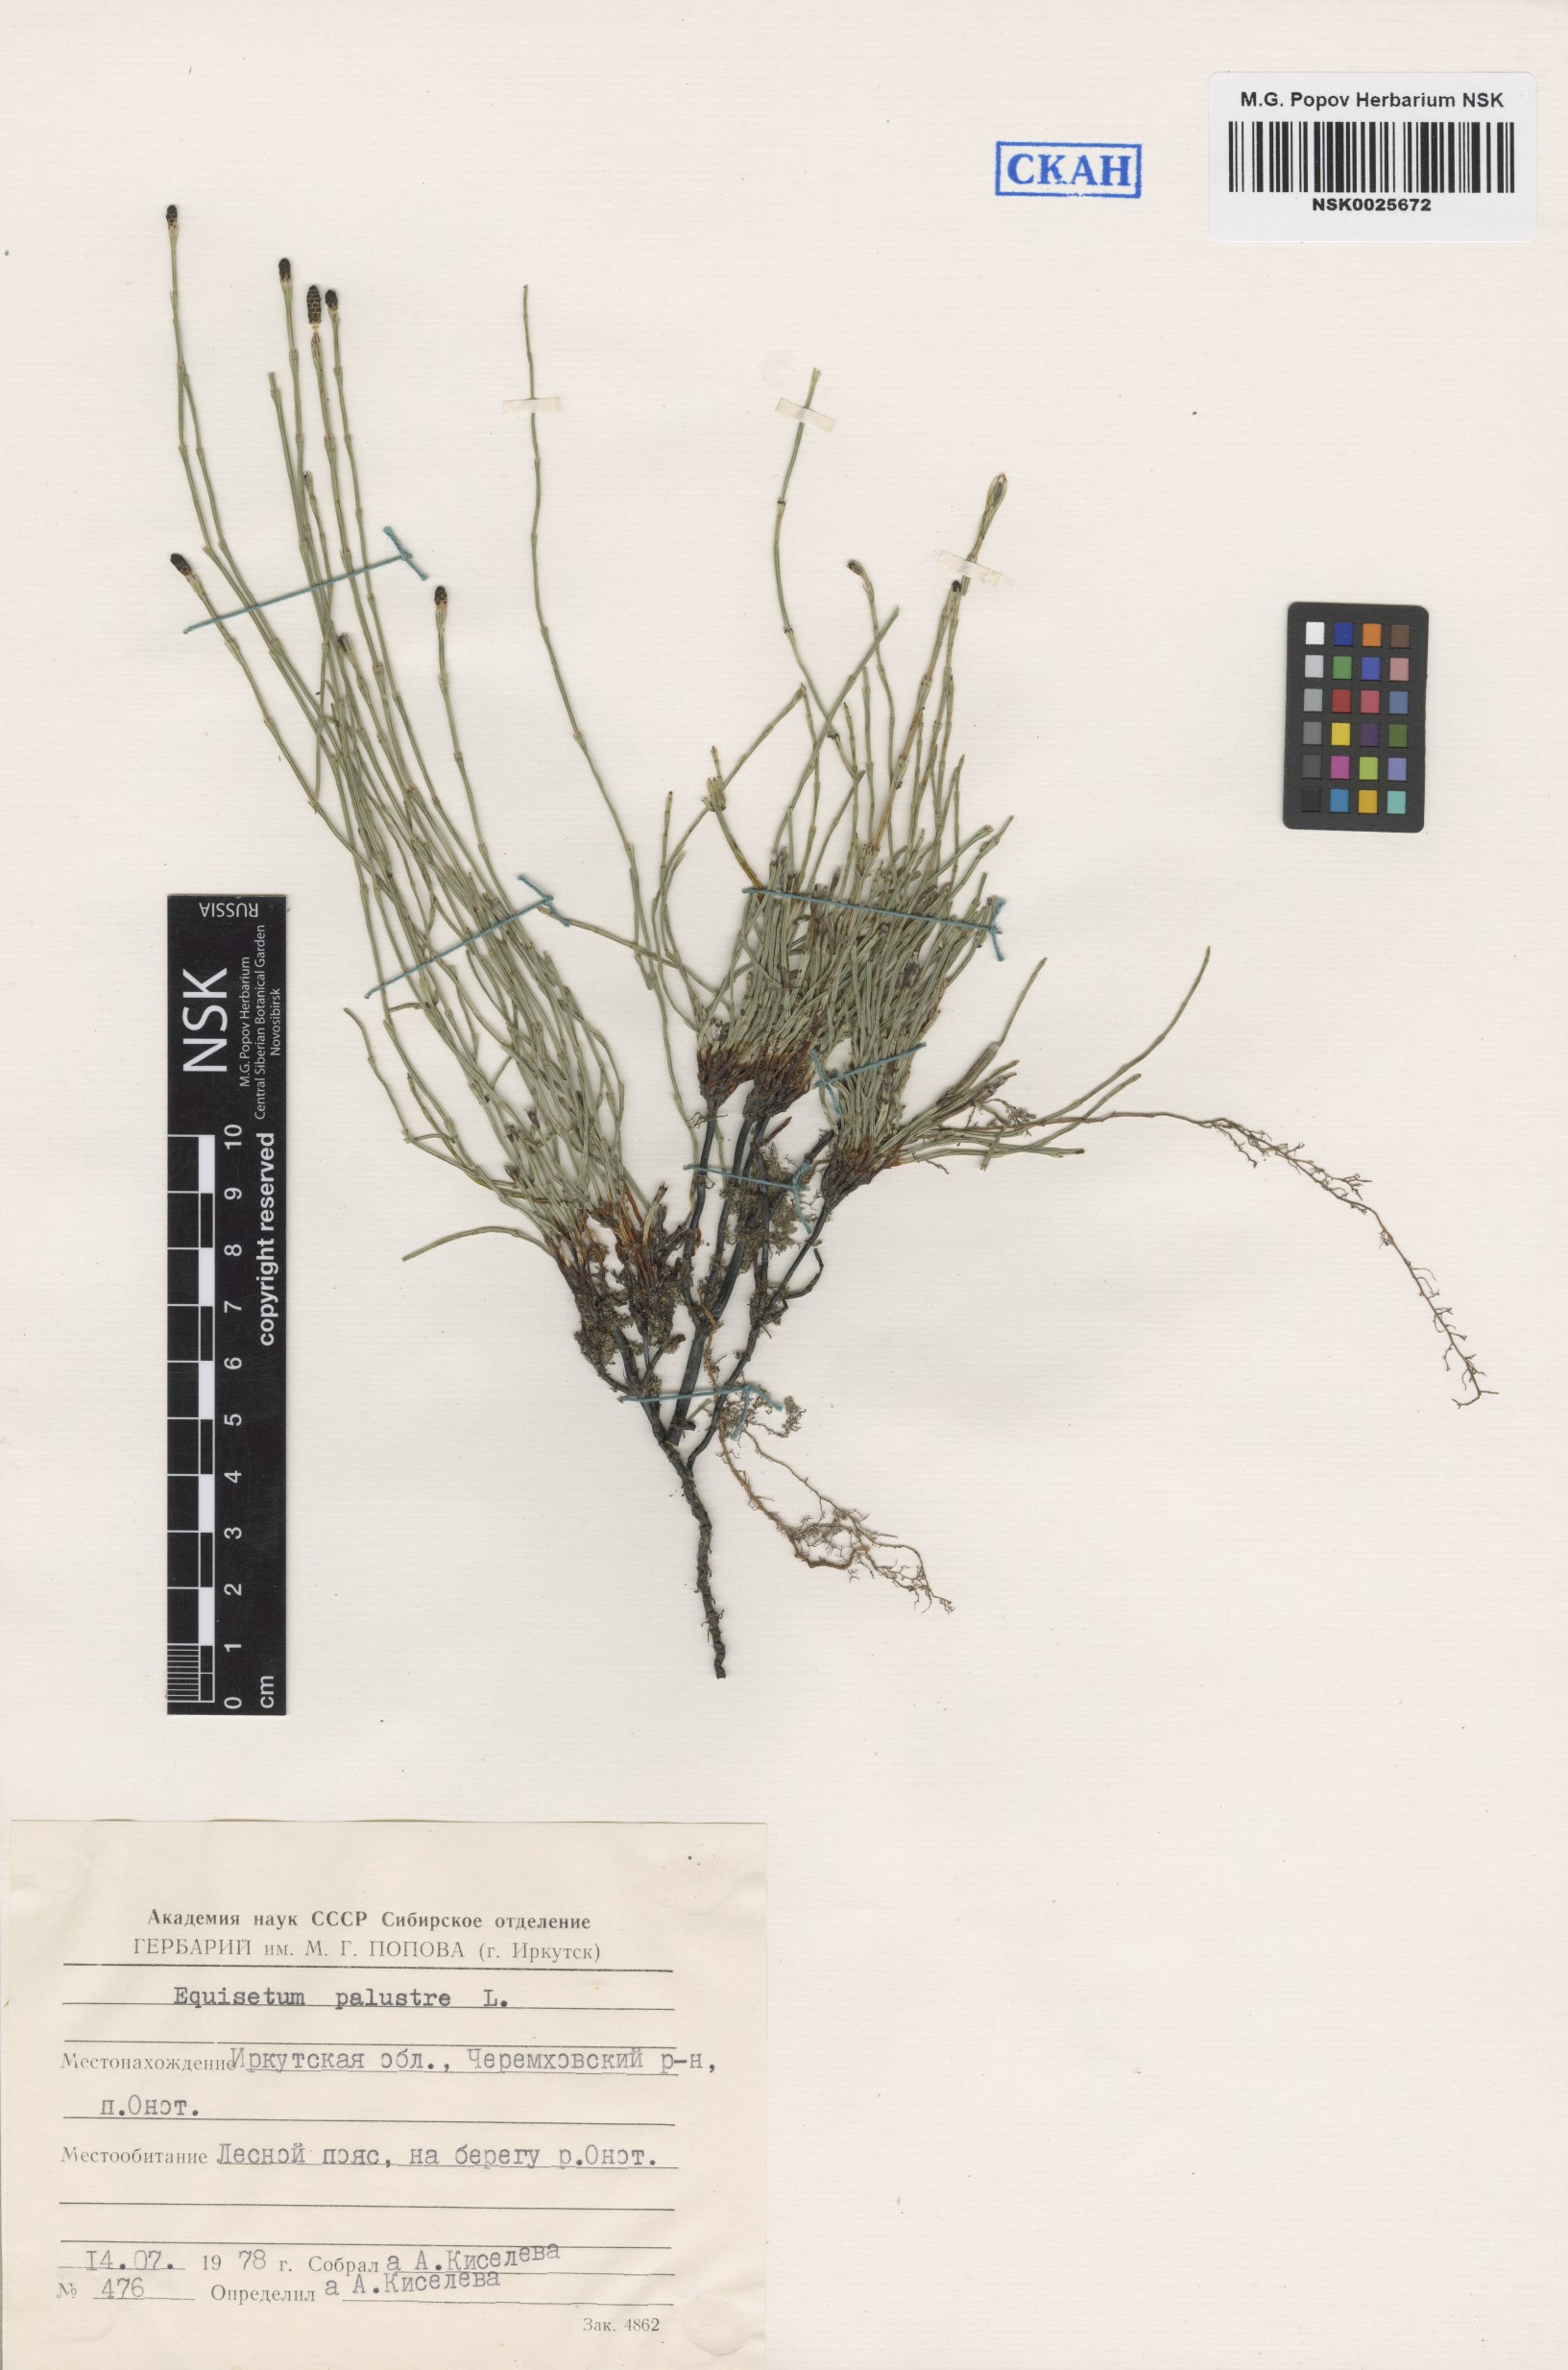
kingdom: Plantae
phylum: Tracheophyta
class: Polypodiopsida
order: Equisetales
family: Equisetaceae
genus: Equisetum
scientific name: Equisetum palustre
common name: Marsh horsetail
